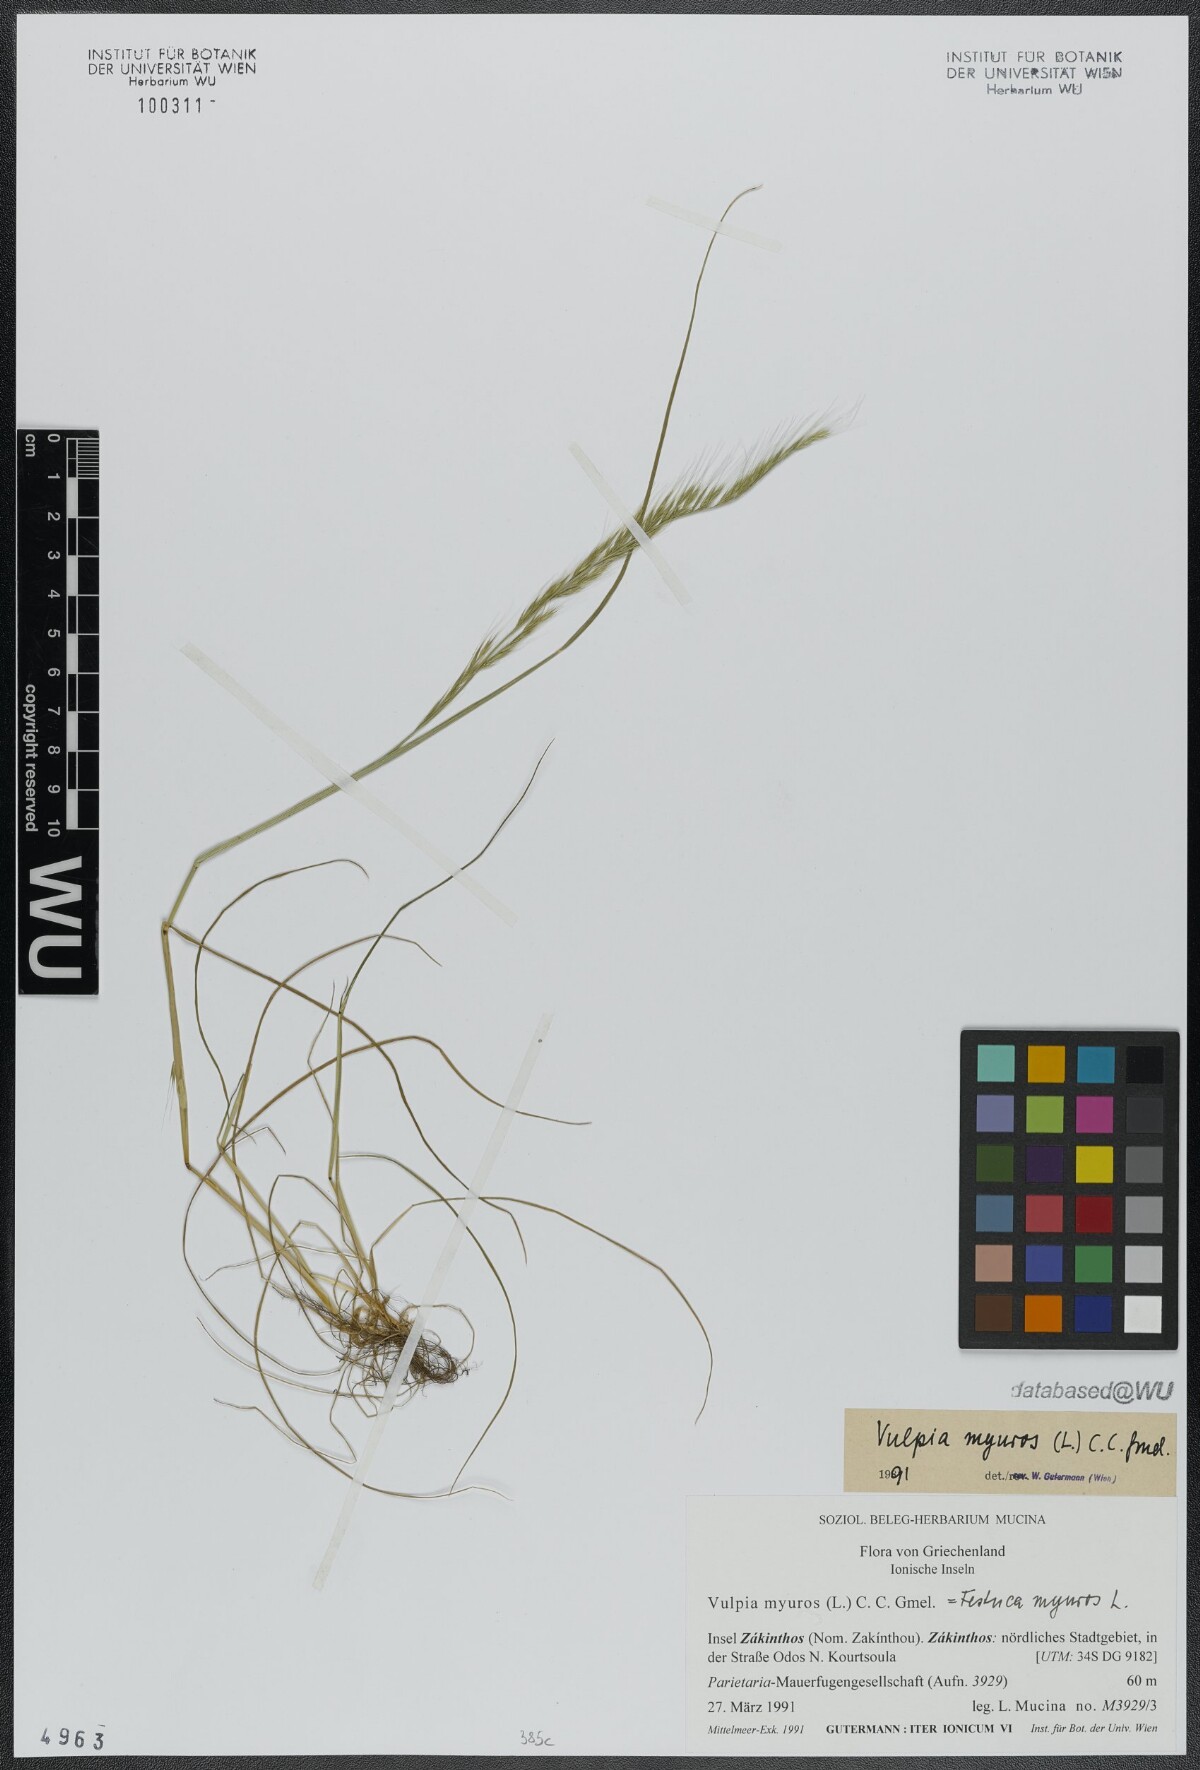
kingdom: Plantae
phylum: Tracheophyta
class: Liliopsida
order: Poales
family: Poaceae
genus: Festuca
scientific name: Festuca myuros
